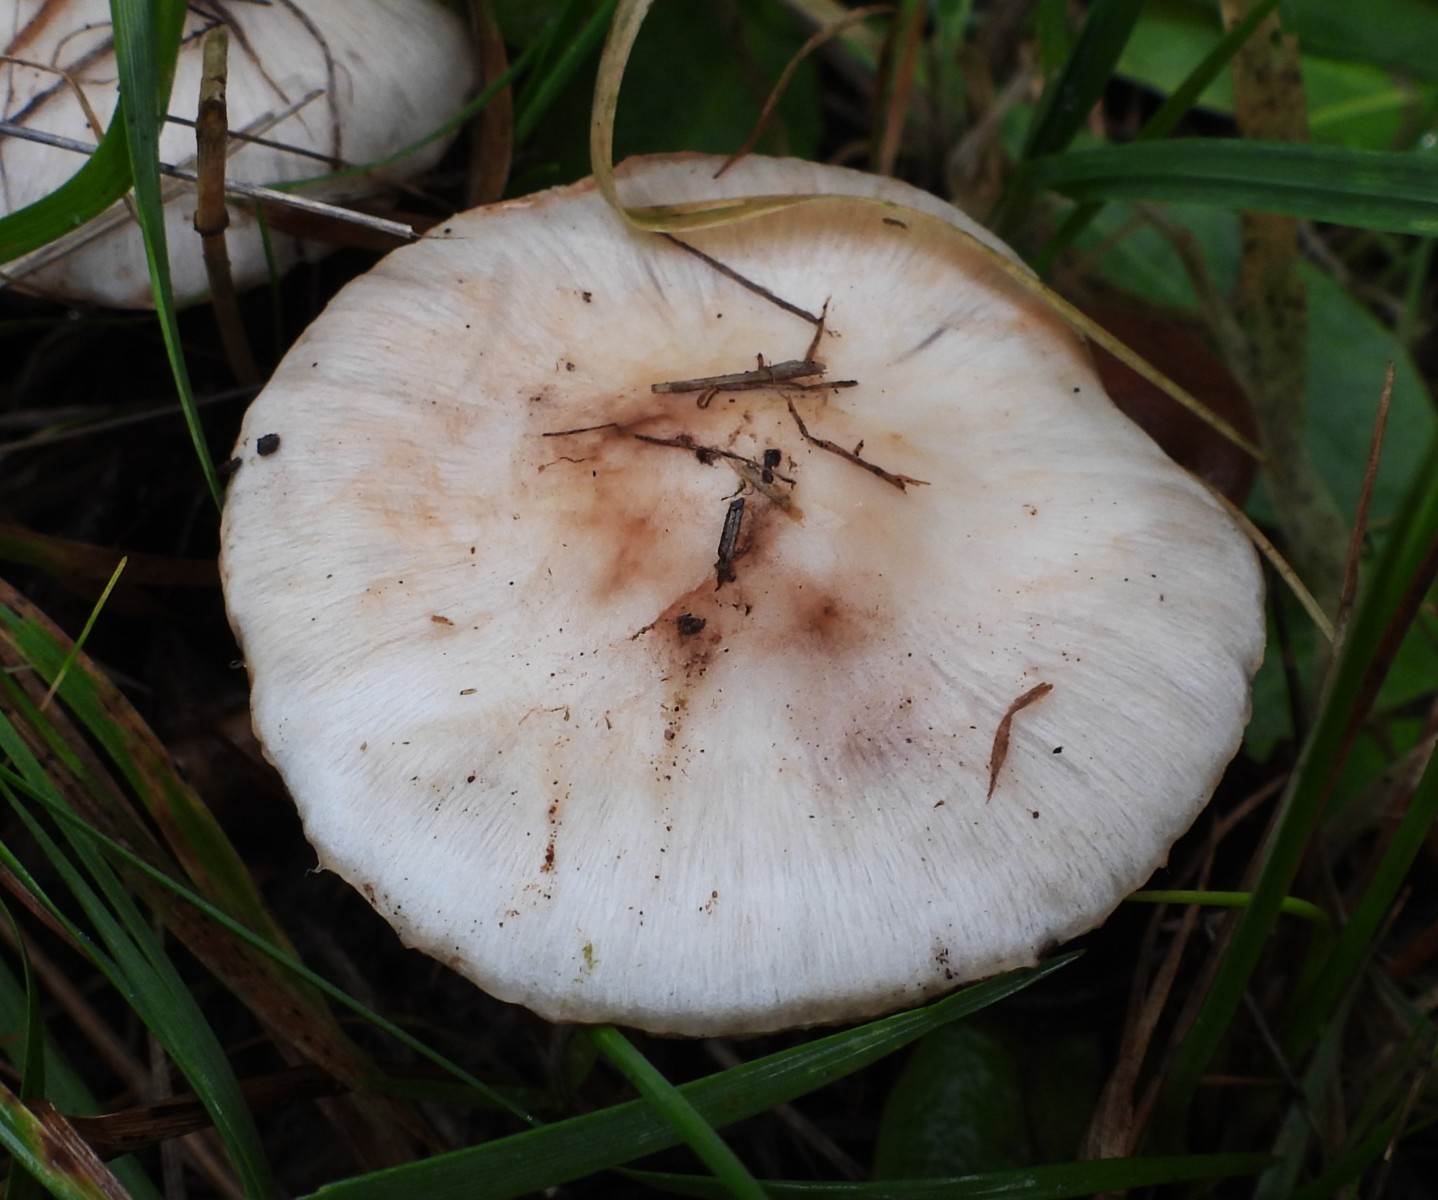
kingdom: Fungi
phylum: Basidiomycota
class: Agaricomycetes
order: Agaricales
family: Inocybaceae
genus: Inocybe
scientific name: Inocybe
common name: trævlhat
